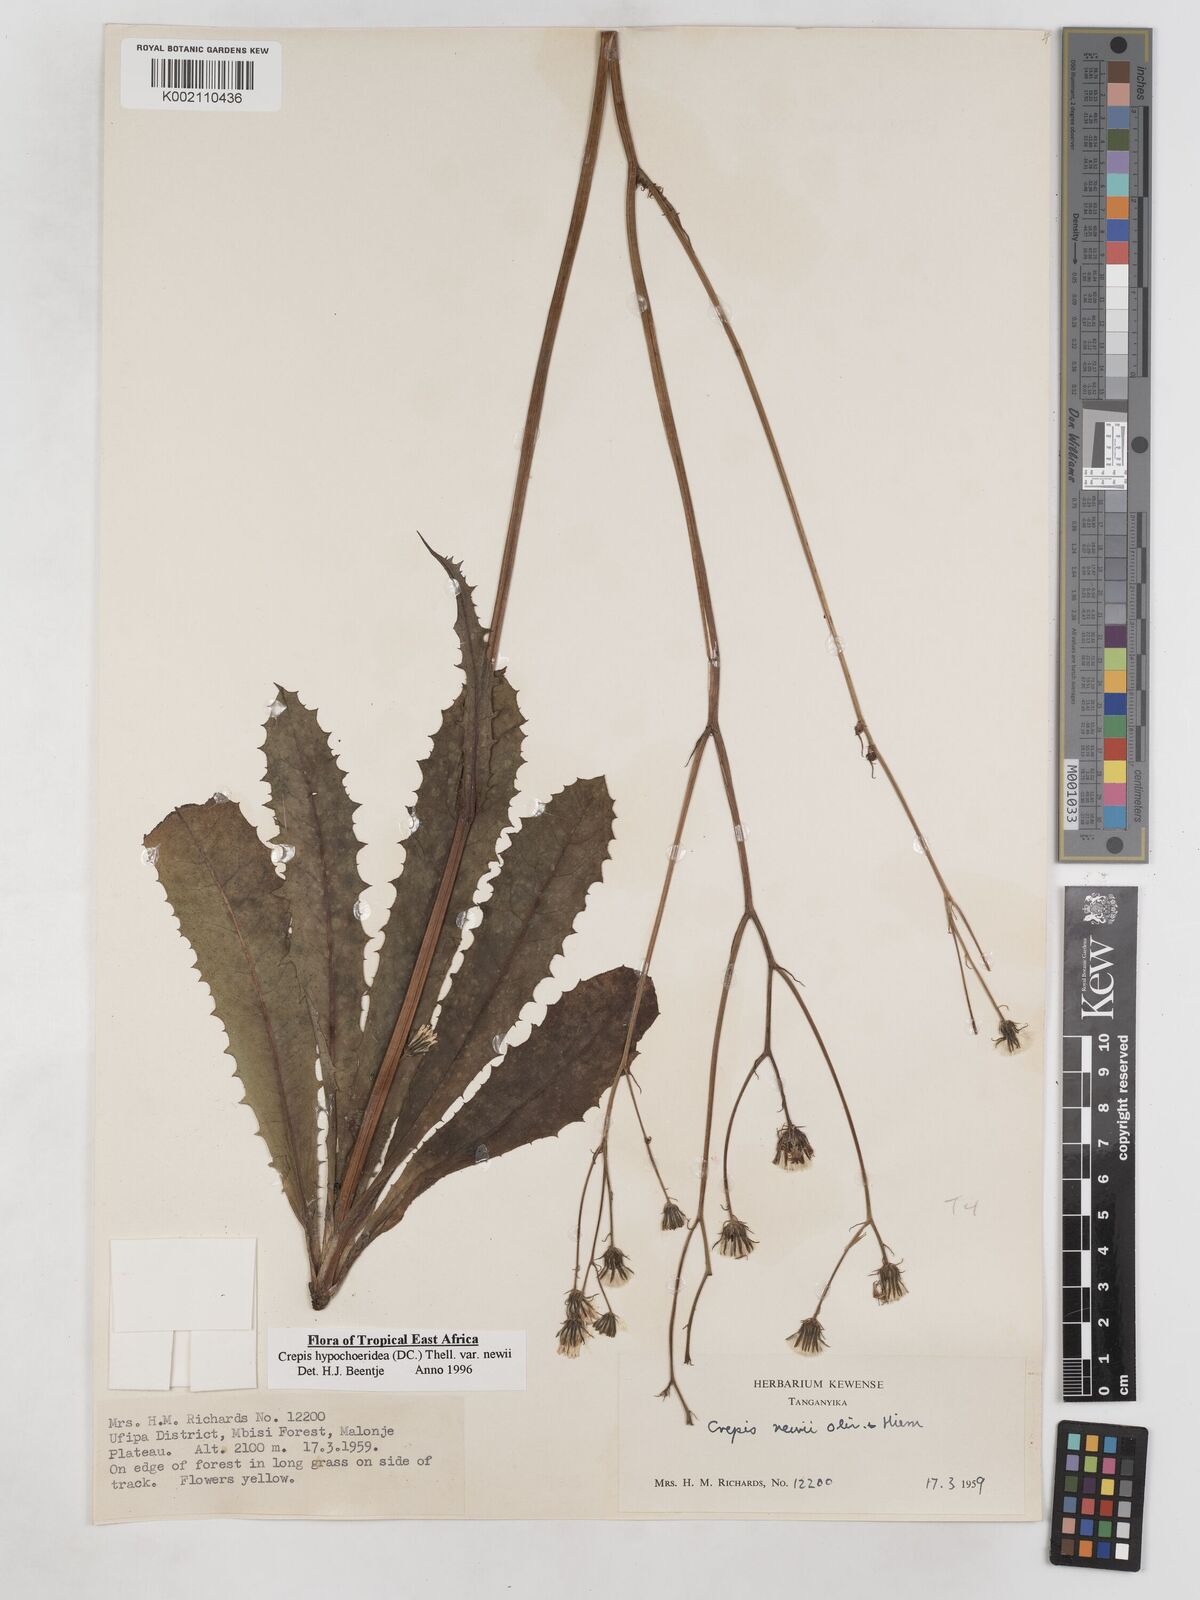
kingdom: Plantae
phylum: Tracheophyta
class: Magnoliopsida
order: Asterales
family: Asteraceae
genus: Crepis
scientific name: Crepis hypochoeridea
